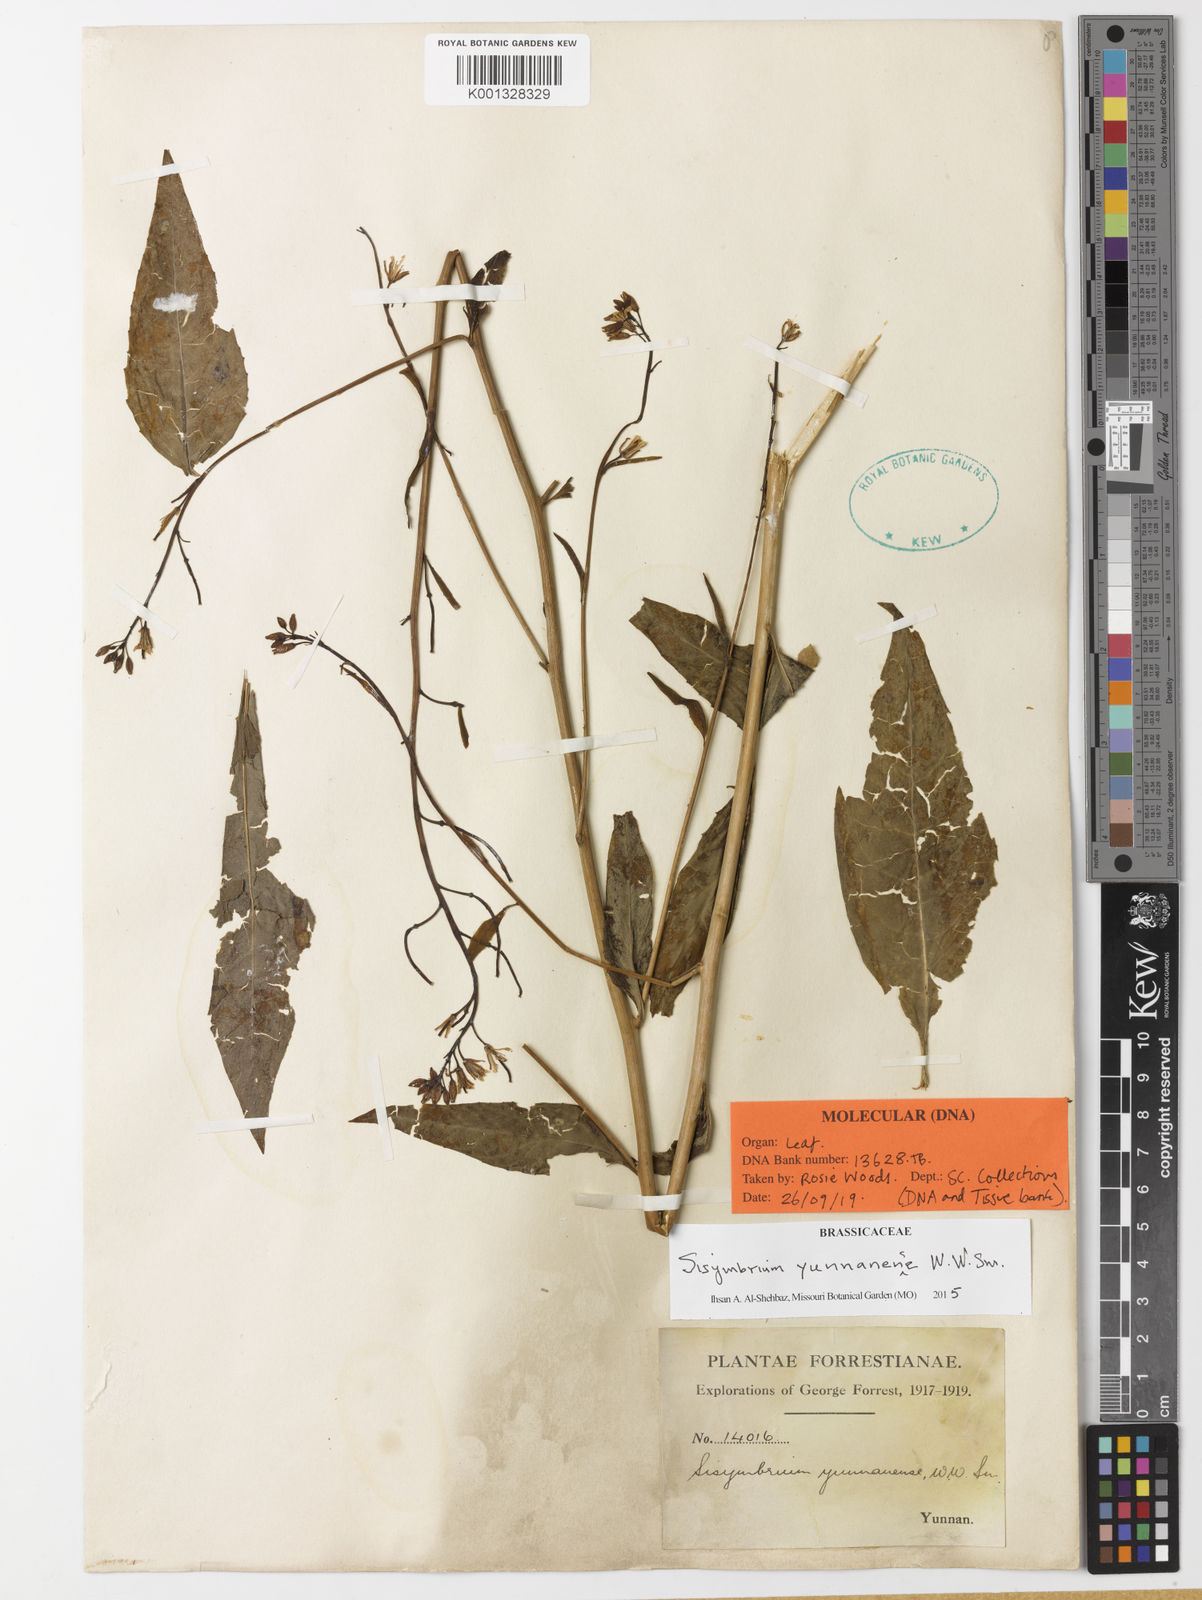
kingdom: Plantae
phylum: Tracheophyta
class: Magnoliopsida
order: Brassicales
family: Brassicaceae
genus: Sisymbrium
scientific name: Sisymbrium yunnanense
